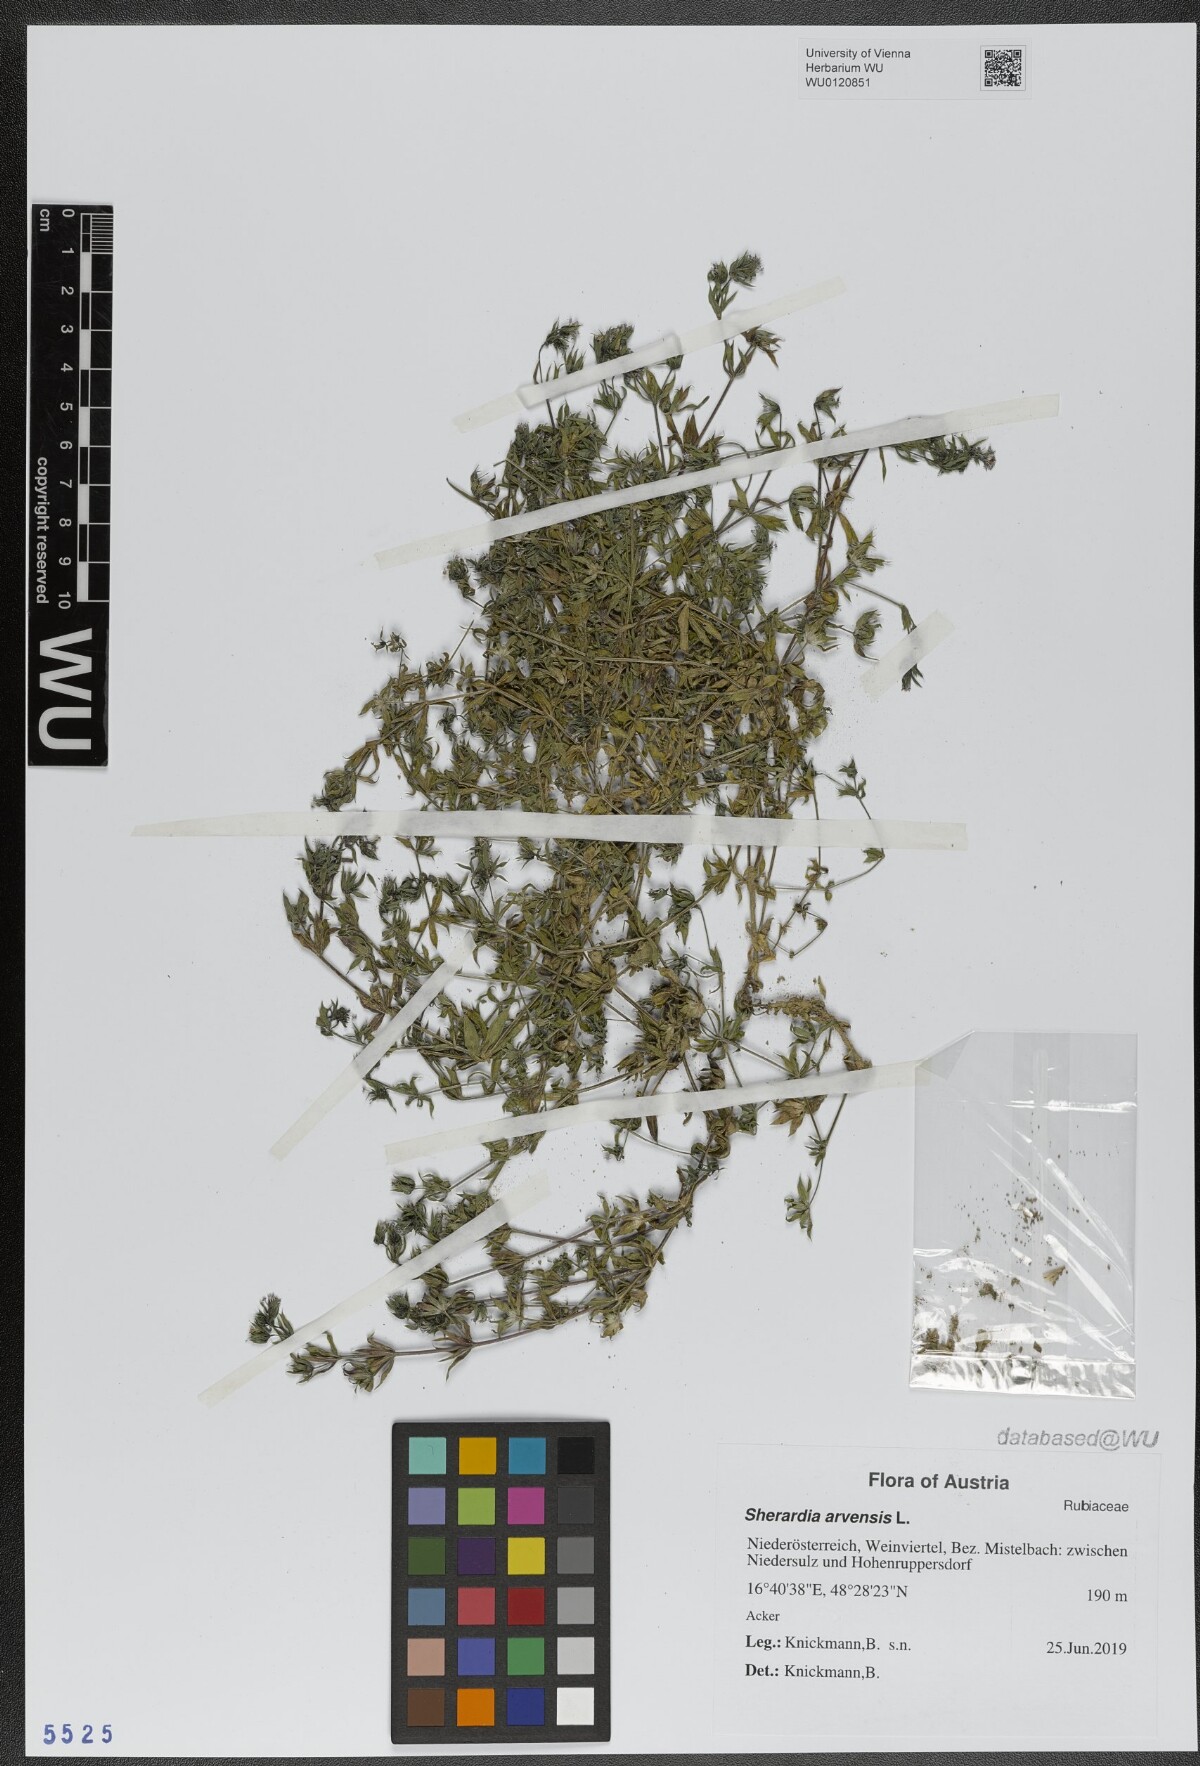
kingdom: Plantae
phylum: Tracheophyta
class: Magnoliopsida
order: Gentianales
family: Rubiaceae
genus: Sherardia
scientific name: Sherardia arvensis
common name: Field madder
